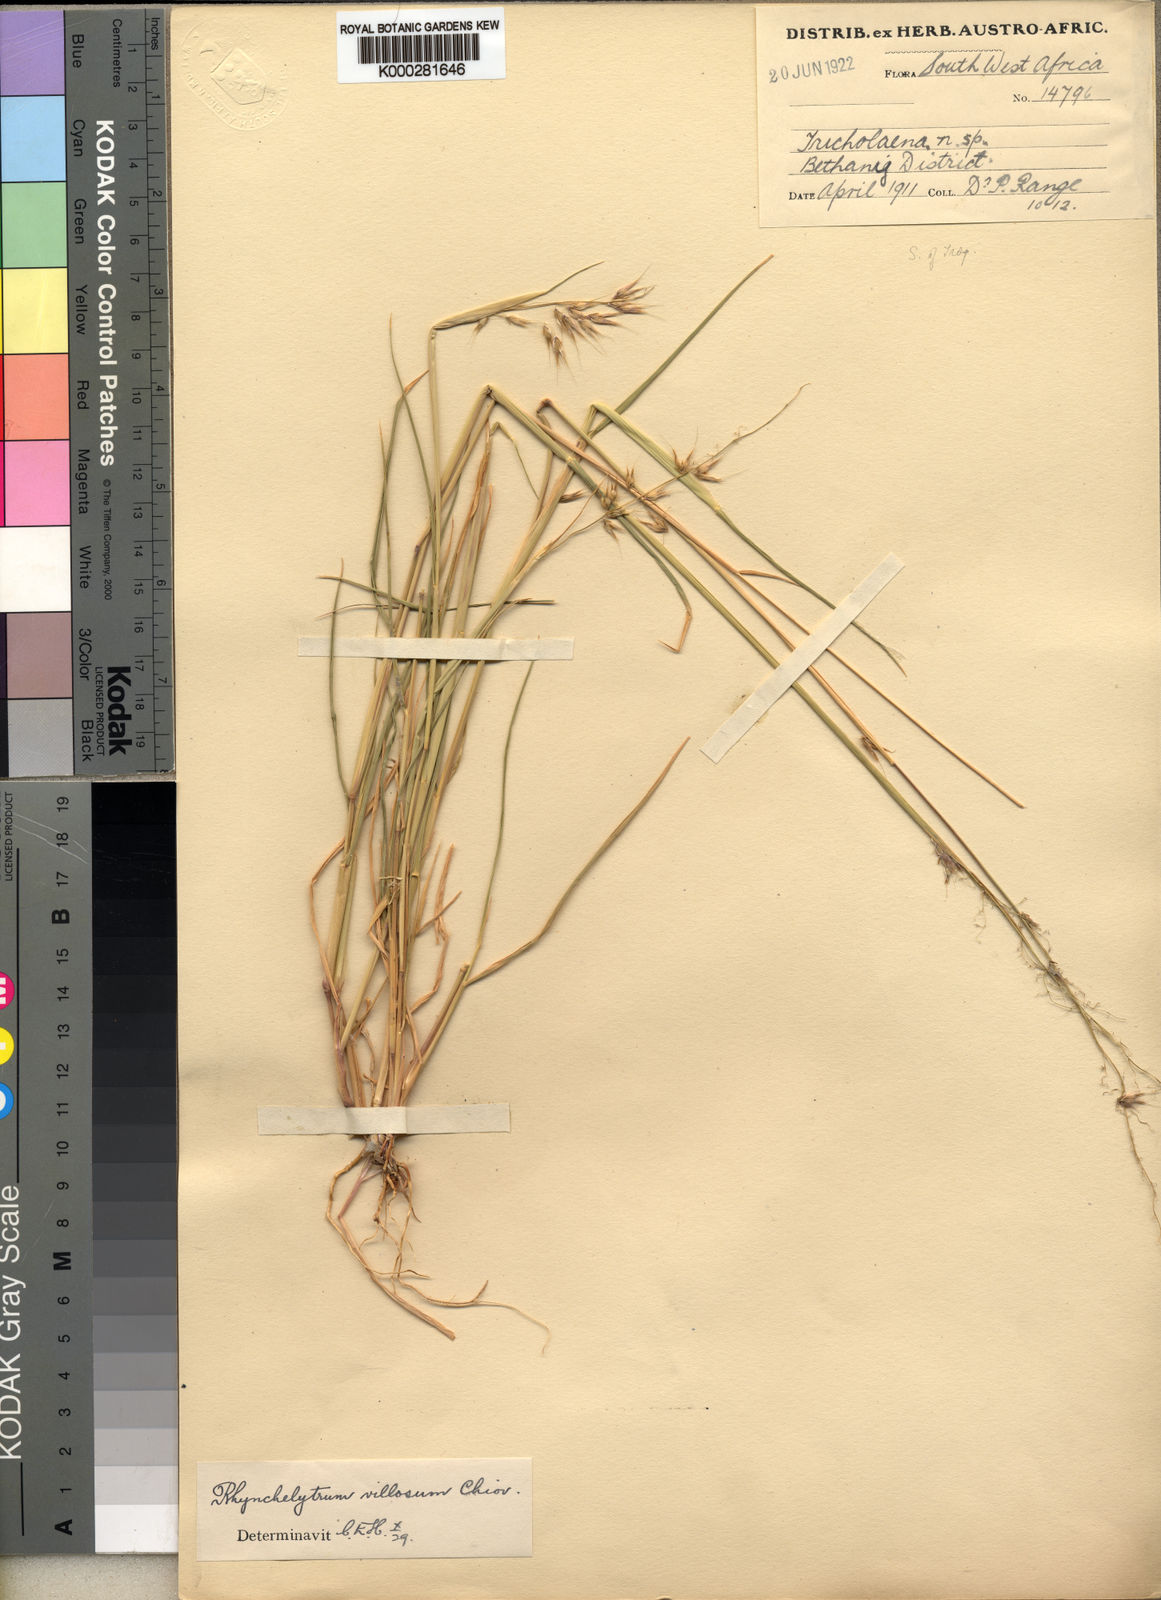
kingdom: Plantae
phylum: Tracheophyta
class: Liliopsida
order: Poales
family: Poaceae
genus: Melinis
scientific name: Melinis repens
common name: Rose natal grass
